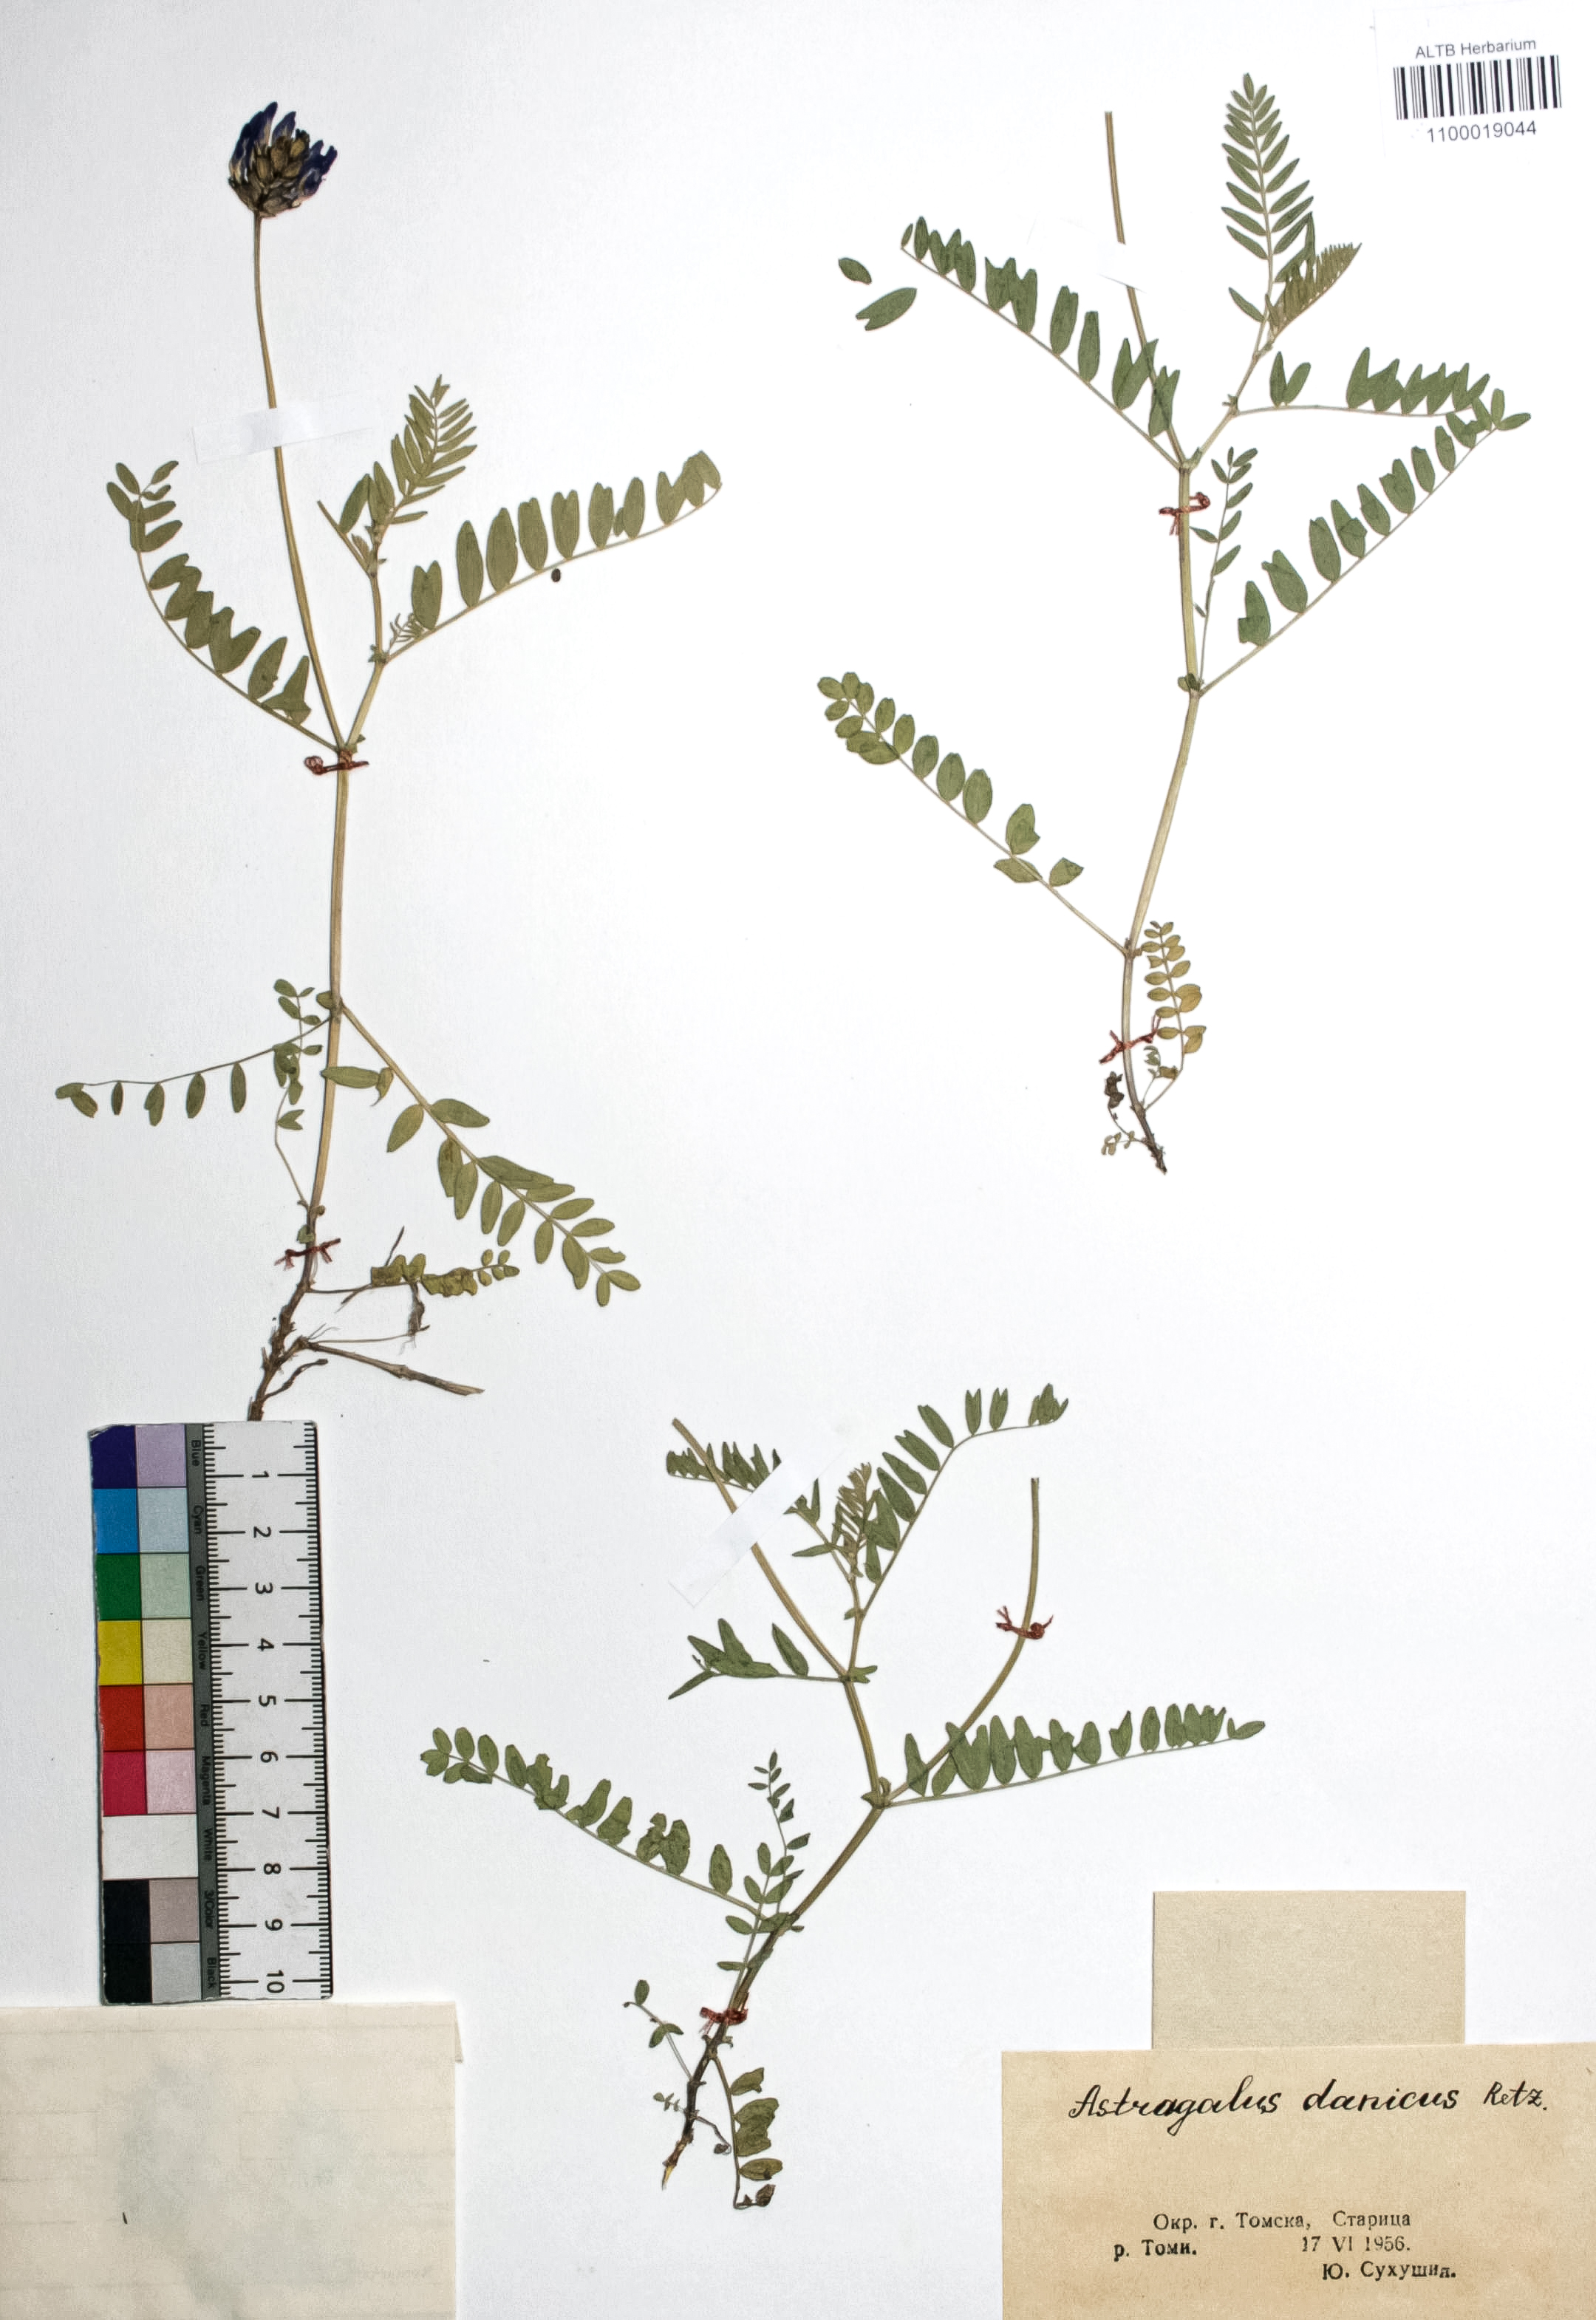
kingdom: Plantae
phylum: Tracheophyta
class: Magnoliopsida
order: Fabales
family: Fabaceae
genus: Astragalus
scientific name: Astragalus danicus
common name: Purple milk-vetch
